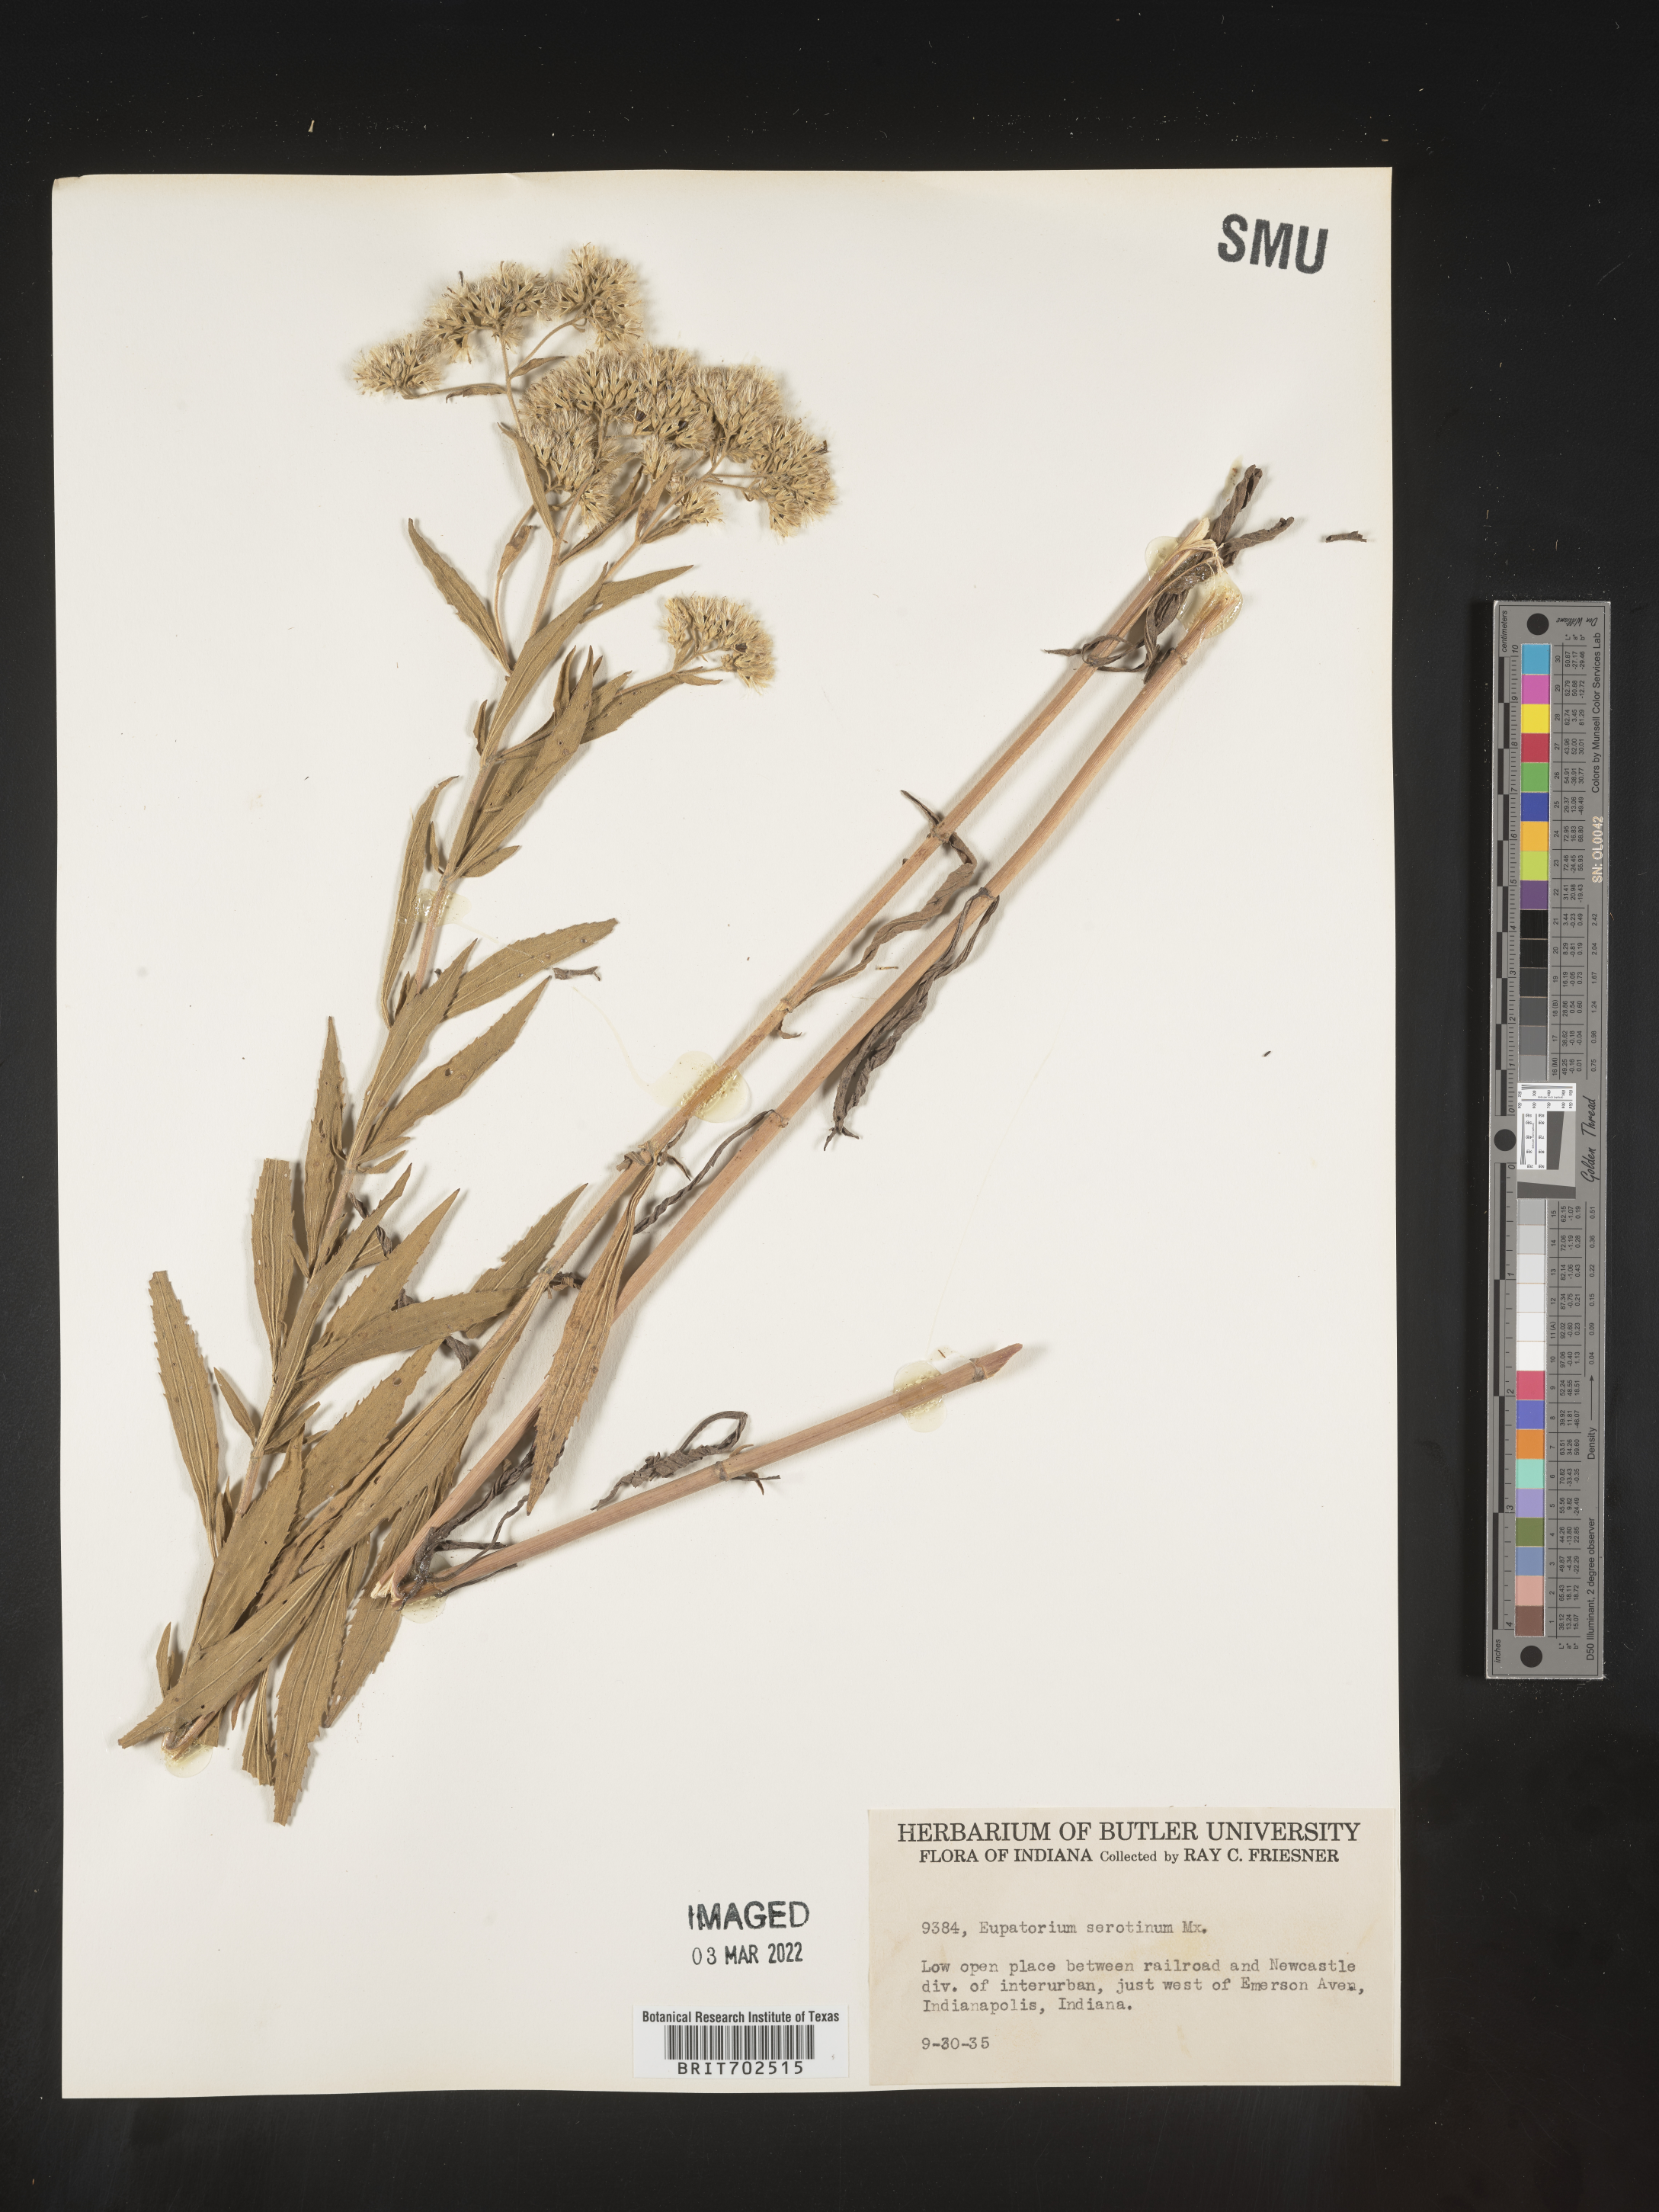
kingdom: Plantae
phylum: Tracheophyta
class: Magnoliopsida
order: Asterales
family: Asteraceae
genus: Eupatorium
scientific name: Eupatorium serotinum
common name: Late boneset
